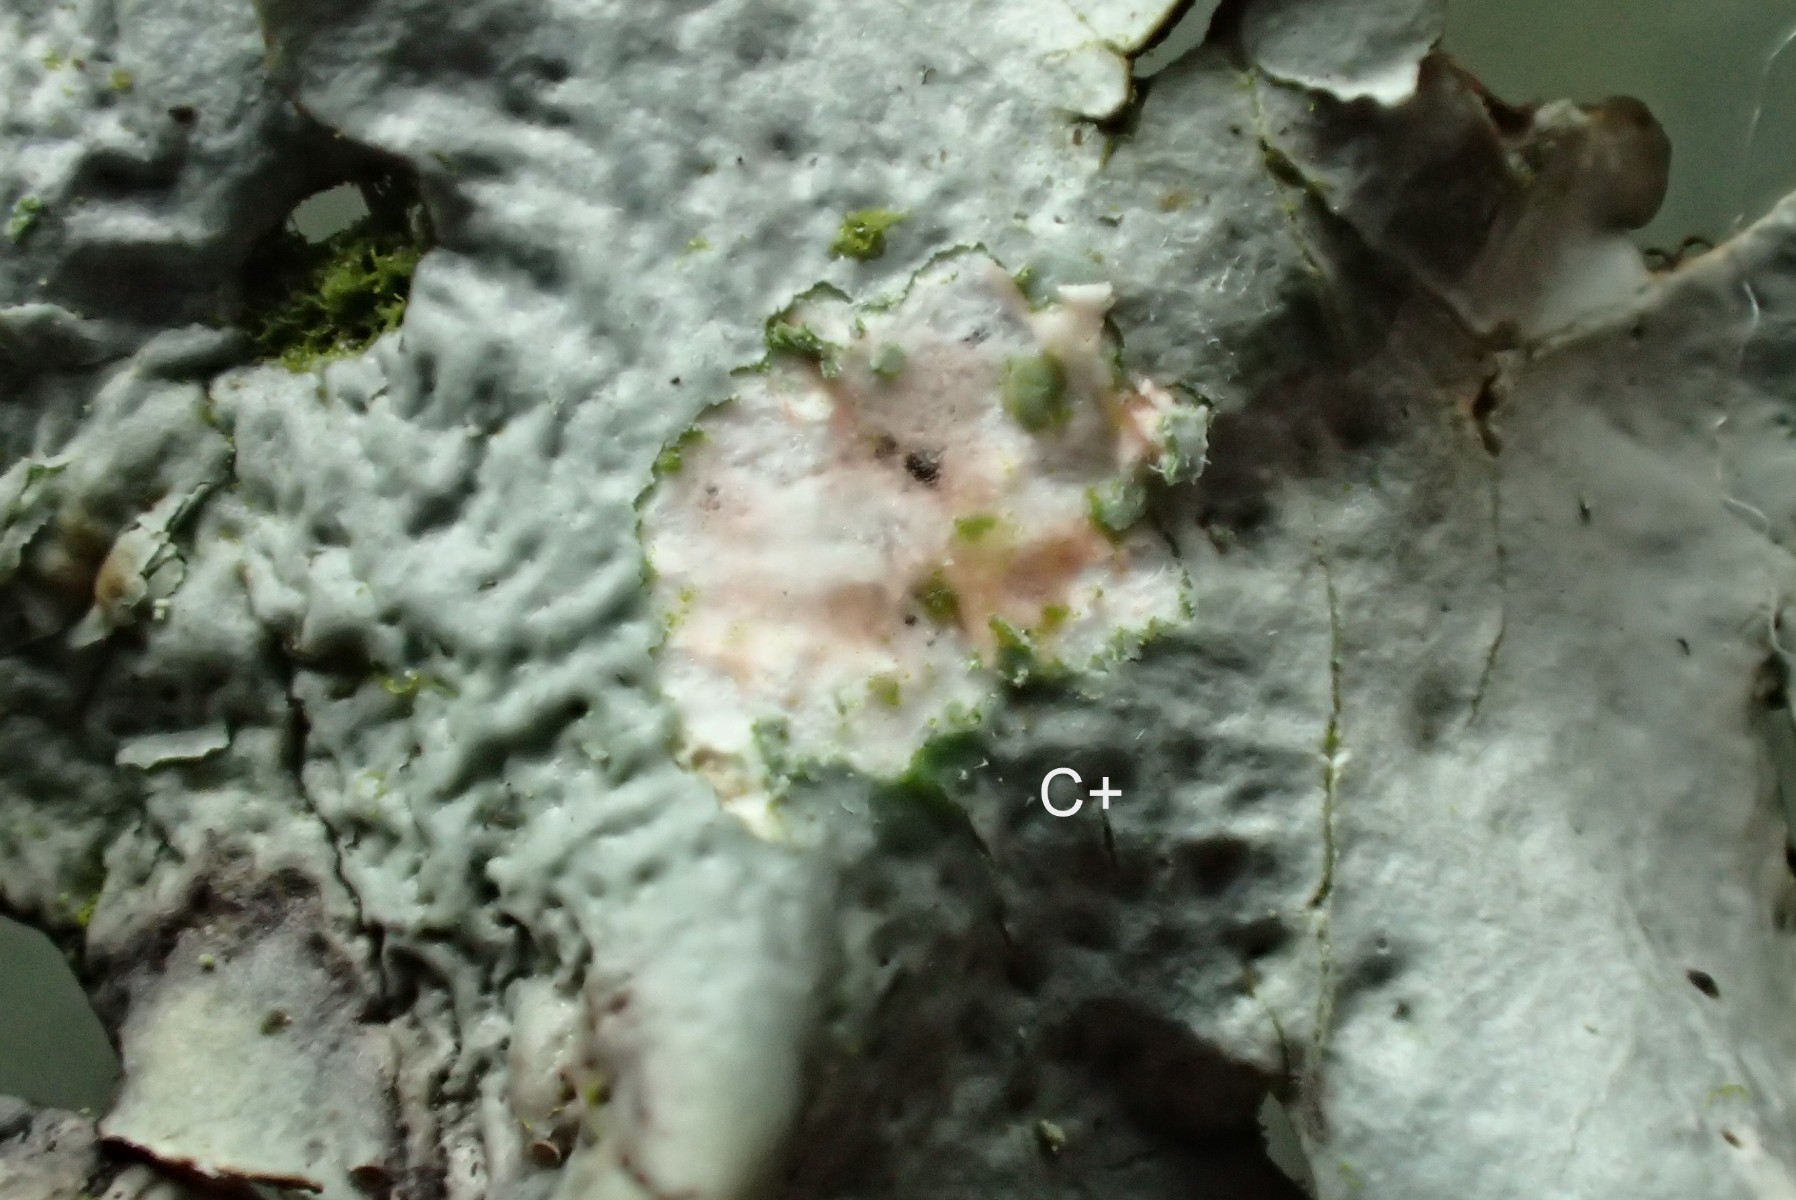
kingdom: Fungi
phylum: Ascomycota
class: Lecanoromycetes
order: Lecanorales
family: Parmeliaceae
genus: Hypotrachyna
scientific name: Hypotrachyna revoluta
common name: bleggrå skållav
